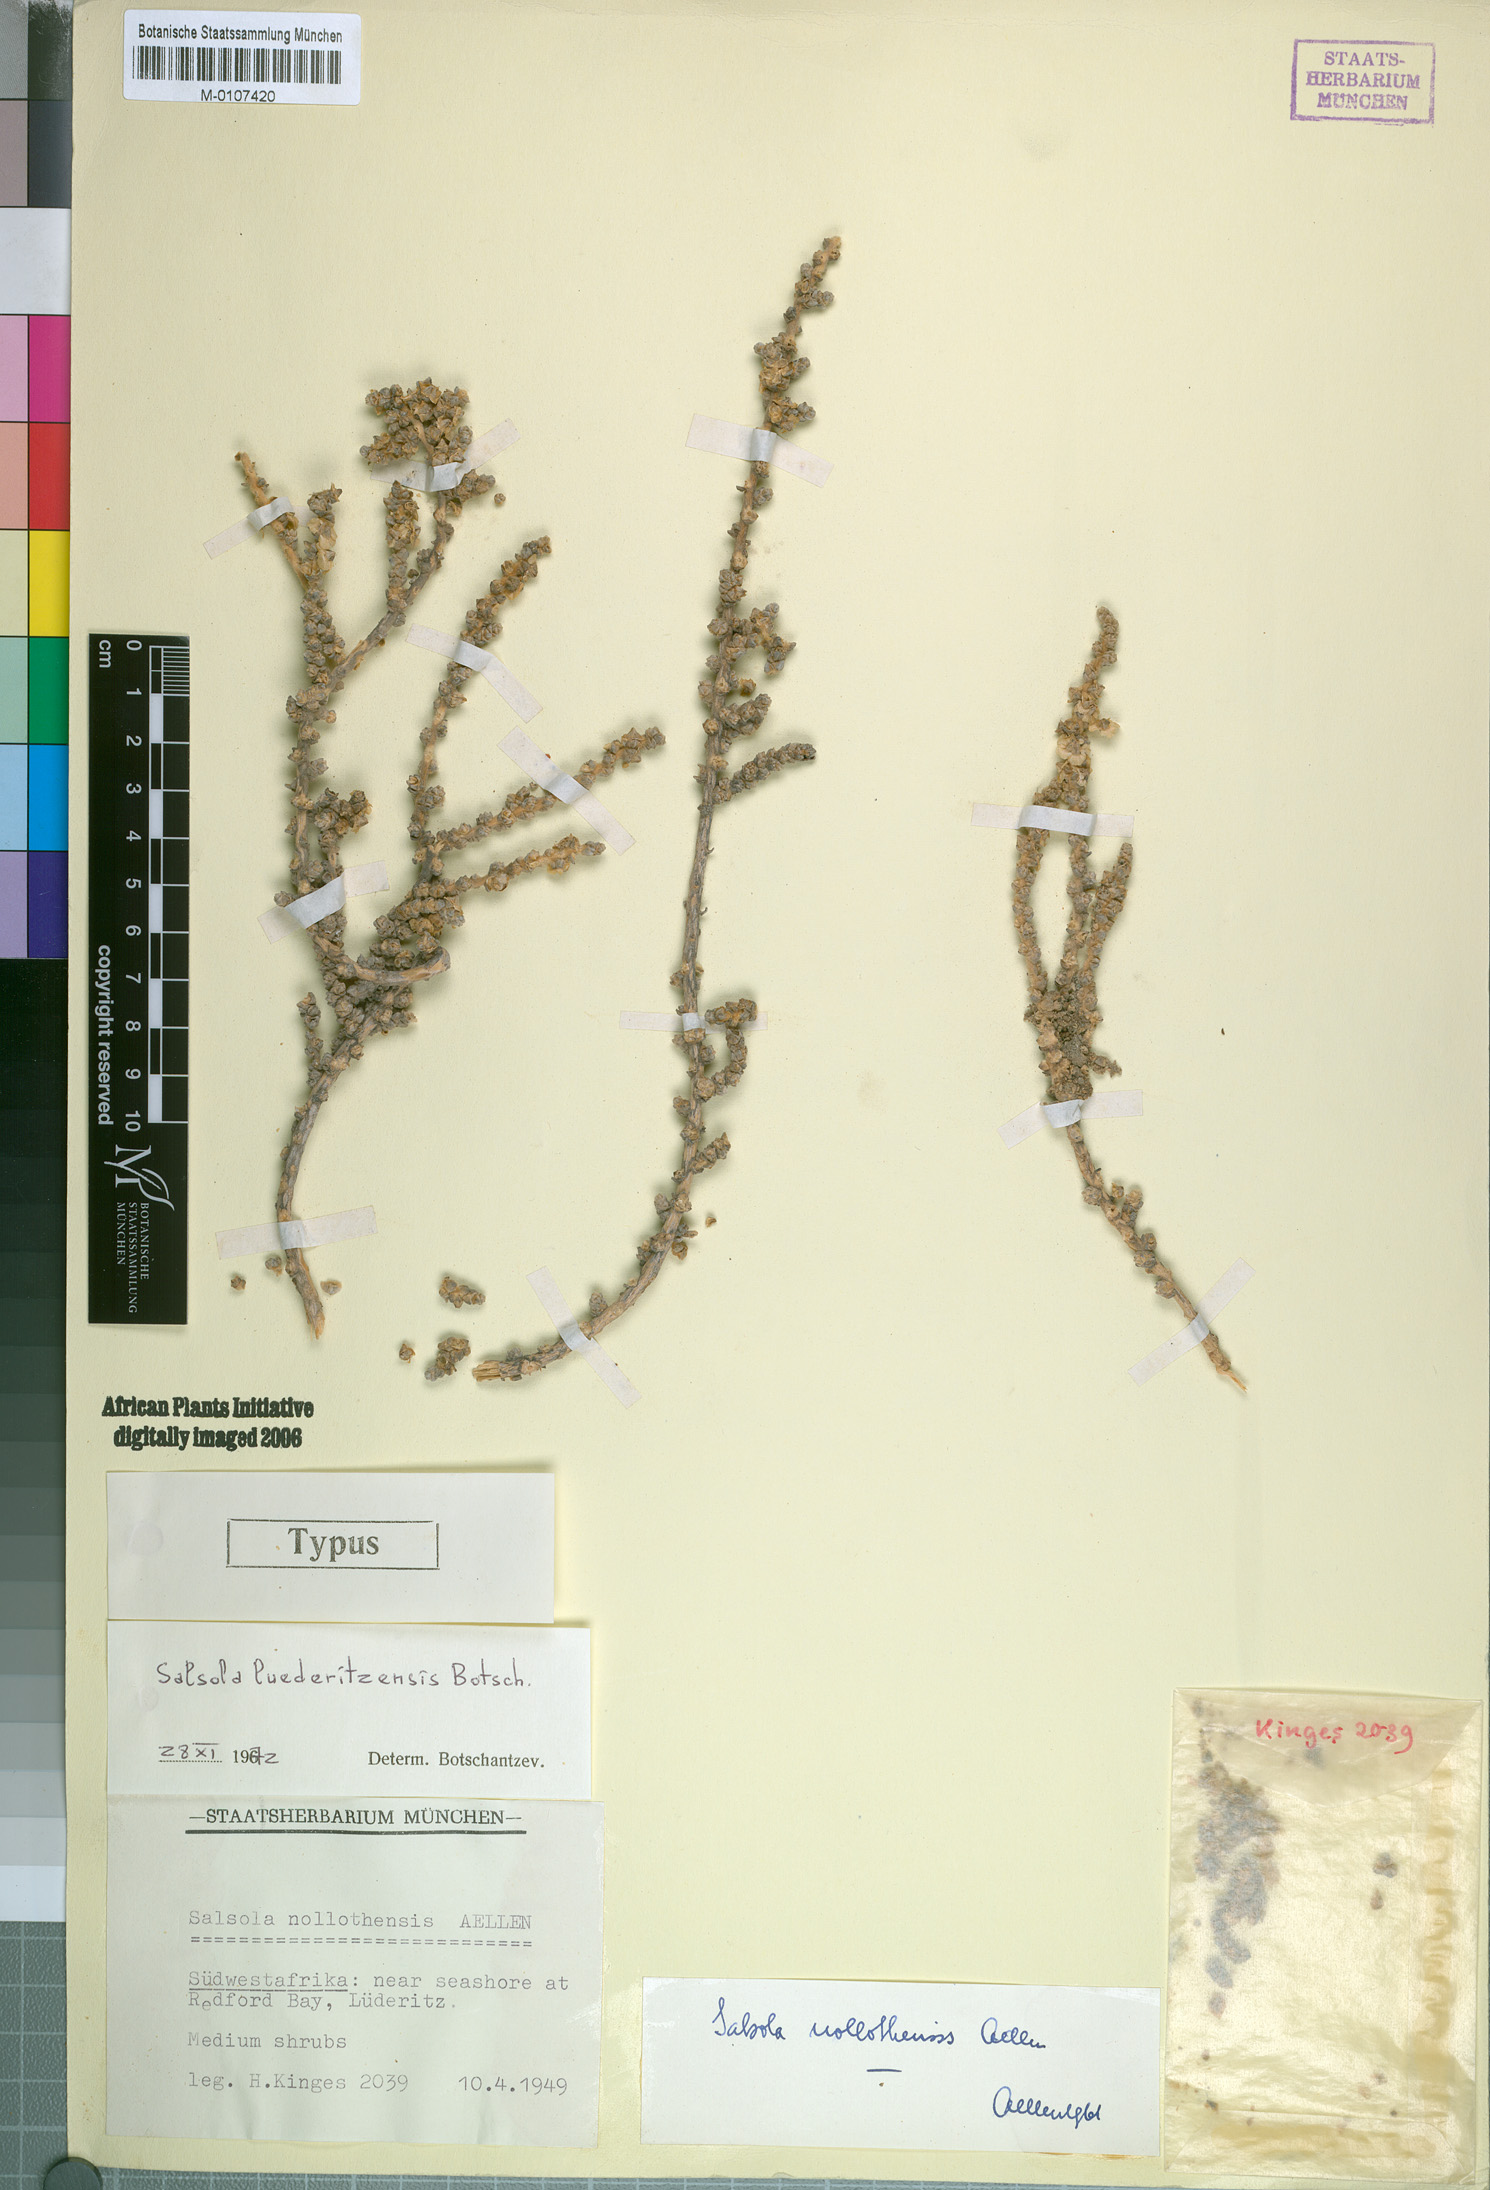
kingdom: Plantae
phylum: Tracheophyta
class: Magnoliopsida
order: Caryophyllales
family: Amaranthaceae
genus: Caroxylon
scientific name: Caroxylon nollothense
